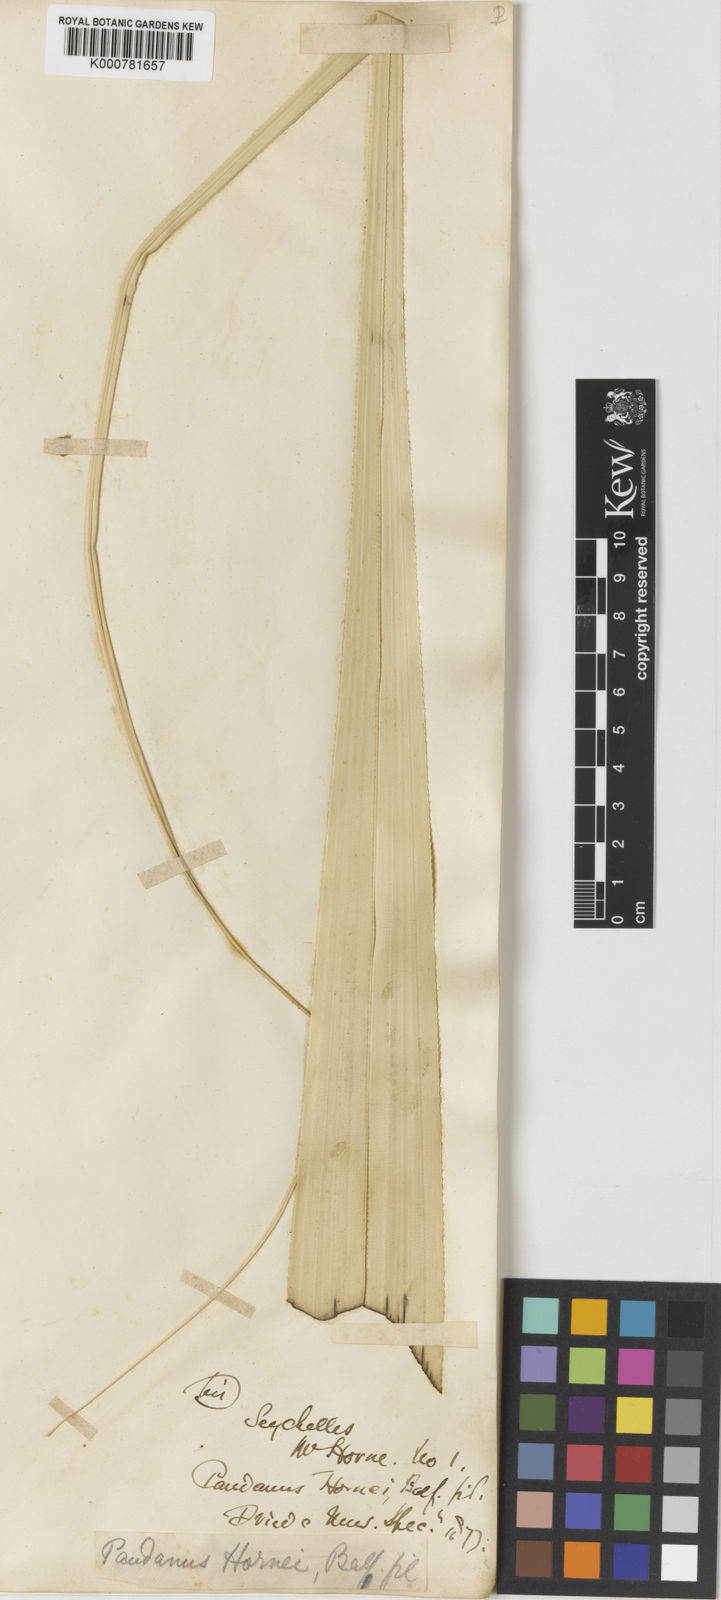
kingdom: Plantae
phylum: Tracheophyta
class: Liliopsida
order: Pandanales
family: Pandanaceae
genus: Martellidendron
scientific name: Martellidendron hornei
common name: Horne’s pandanus
